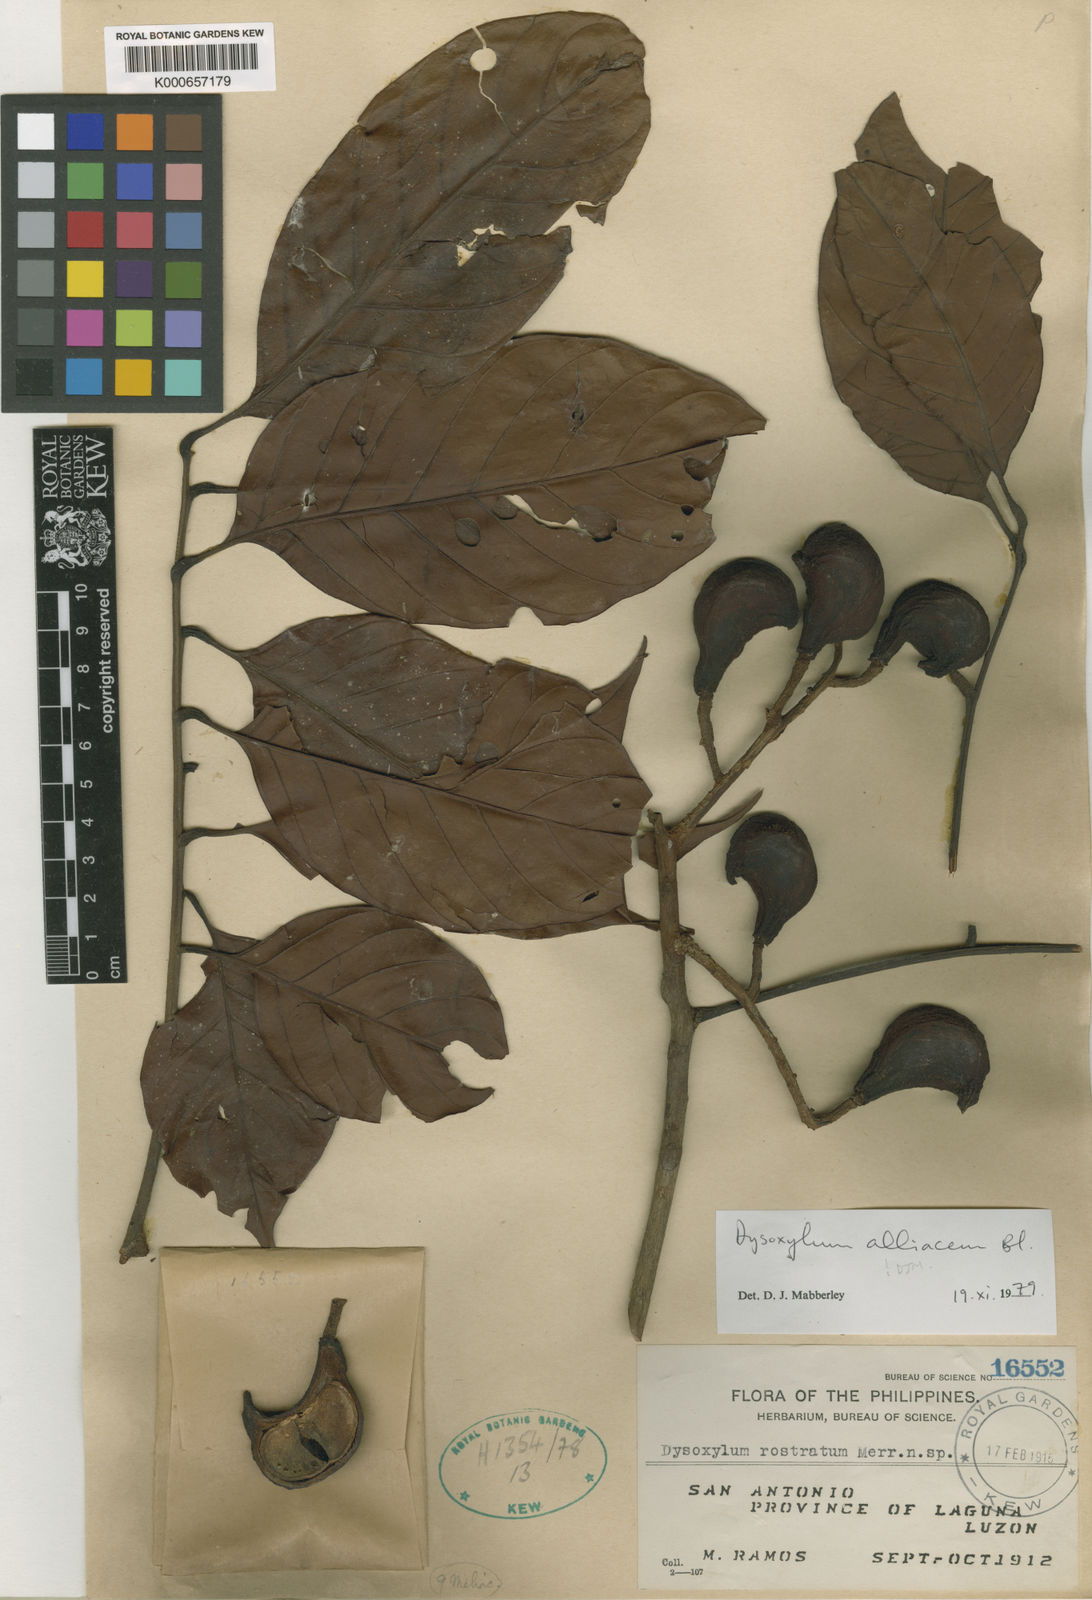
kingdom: Plantae
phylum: Tracheophyta
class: Magnoliopsida
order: Sapindales
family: Meliaceae
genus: Prasoxylon
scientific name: Prasoxylon alliaceum
